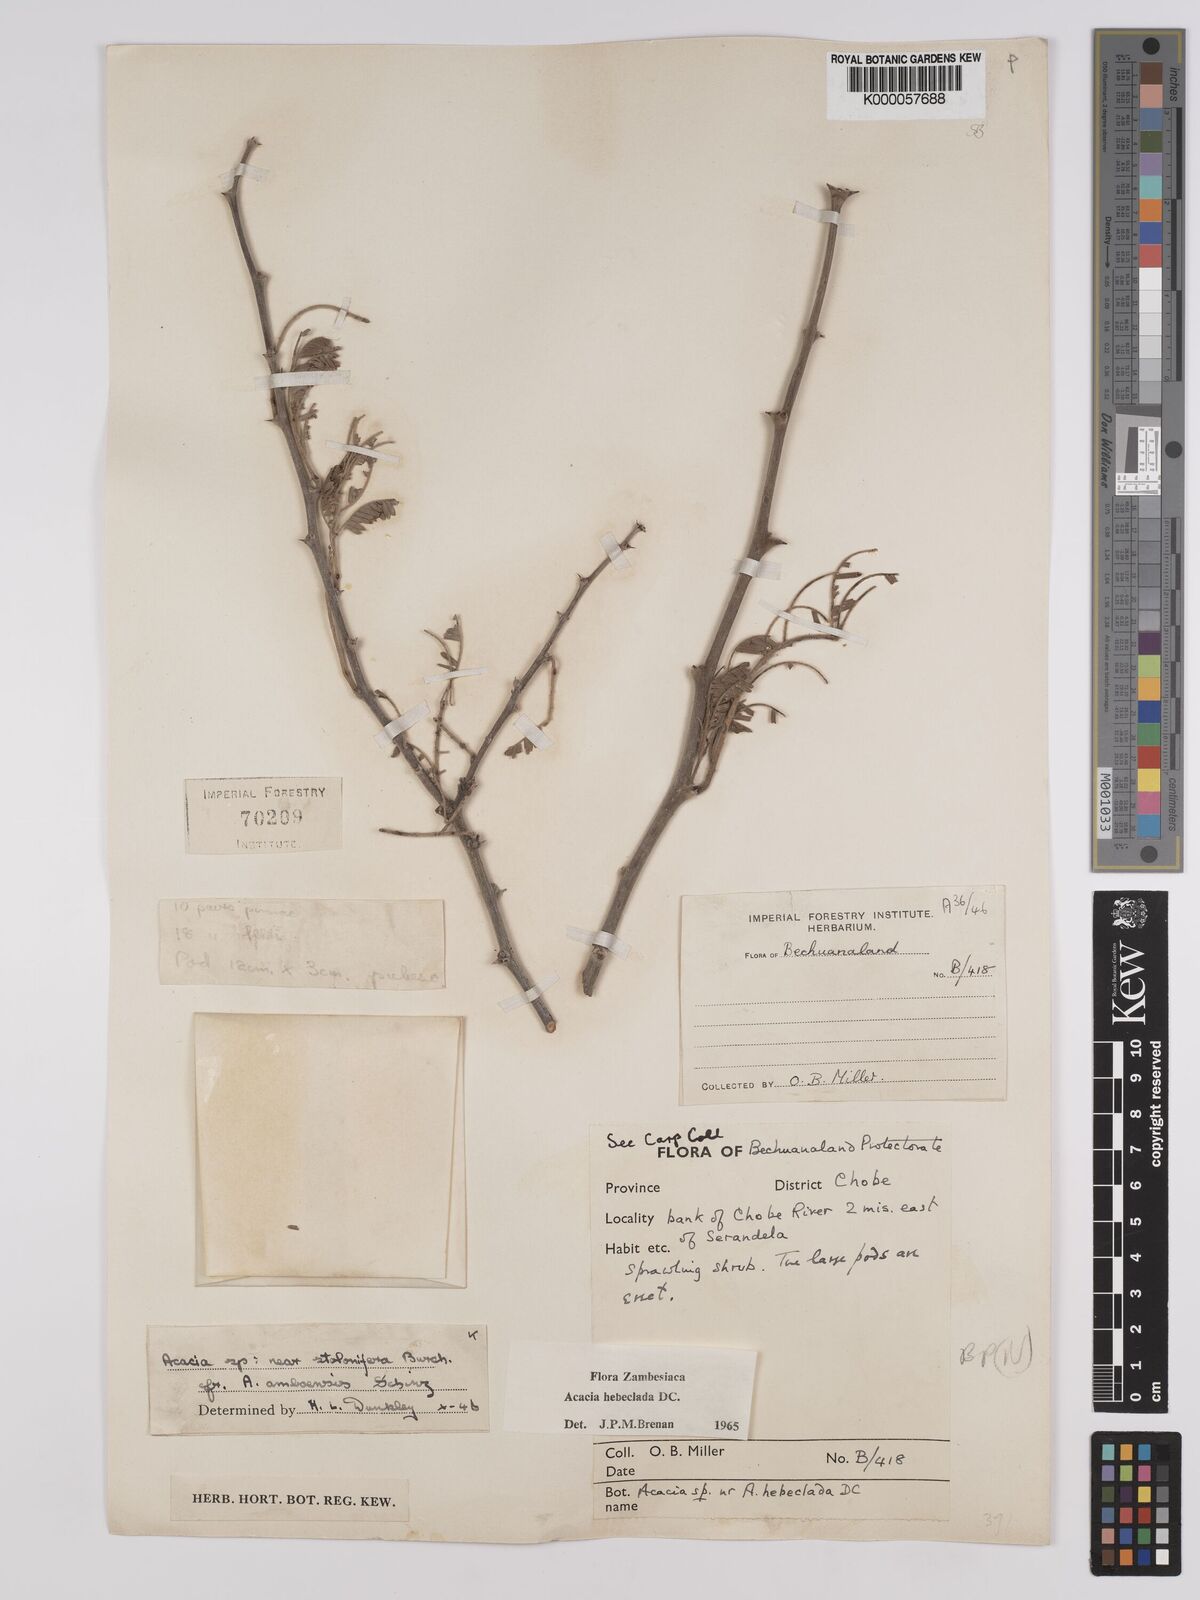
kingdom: Plantae
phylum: Tracheophyta
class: Magnoliopsida
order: Fabales
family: Fabaceae
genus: Vachellia
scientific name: Vachellia hebeclada
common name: Candle thorn
